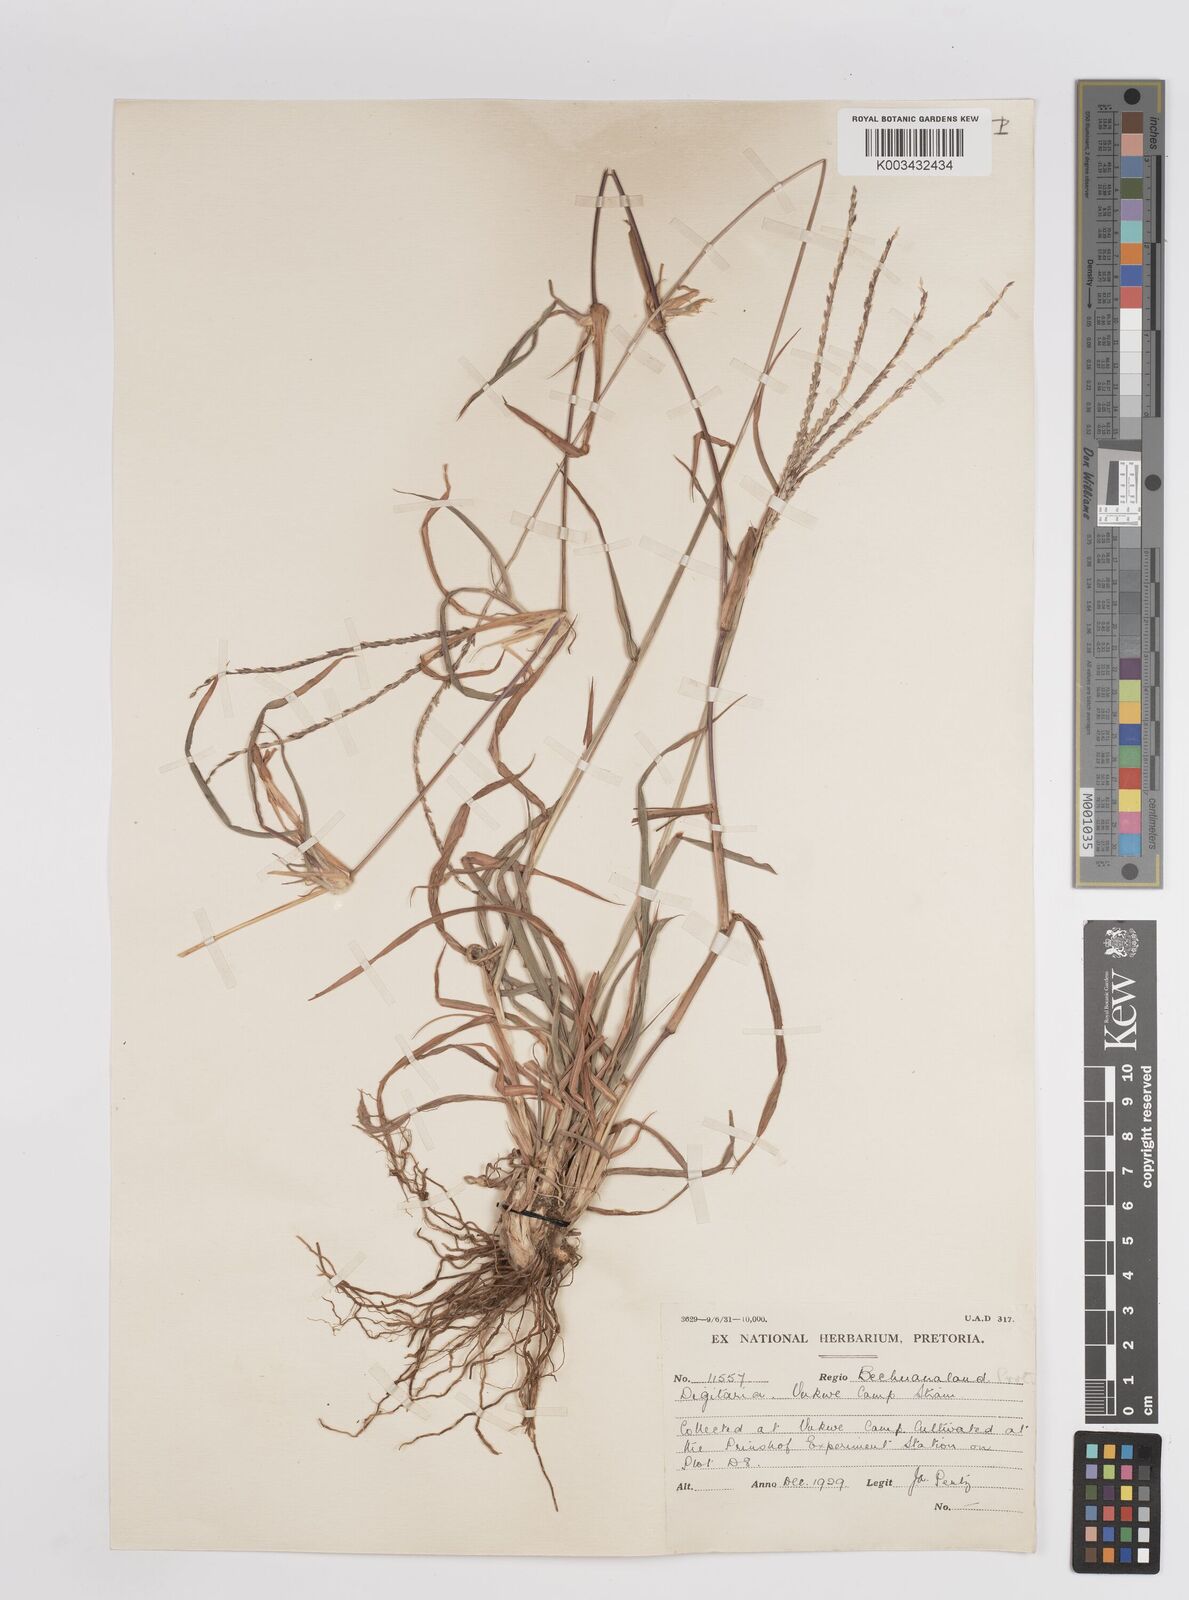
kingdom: Plantae
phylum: Tracheophyta
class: Liliopsida
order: Poales
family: Poaceae
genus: Digitaria
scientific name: Digitaria eriantha
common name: Digitgrass
